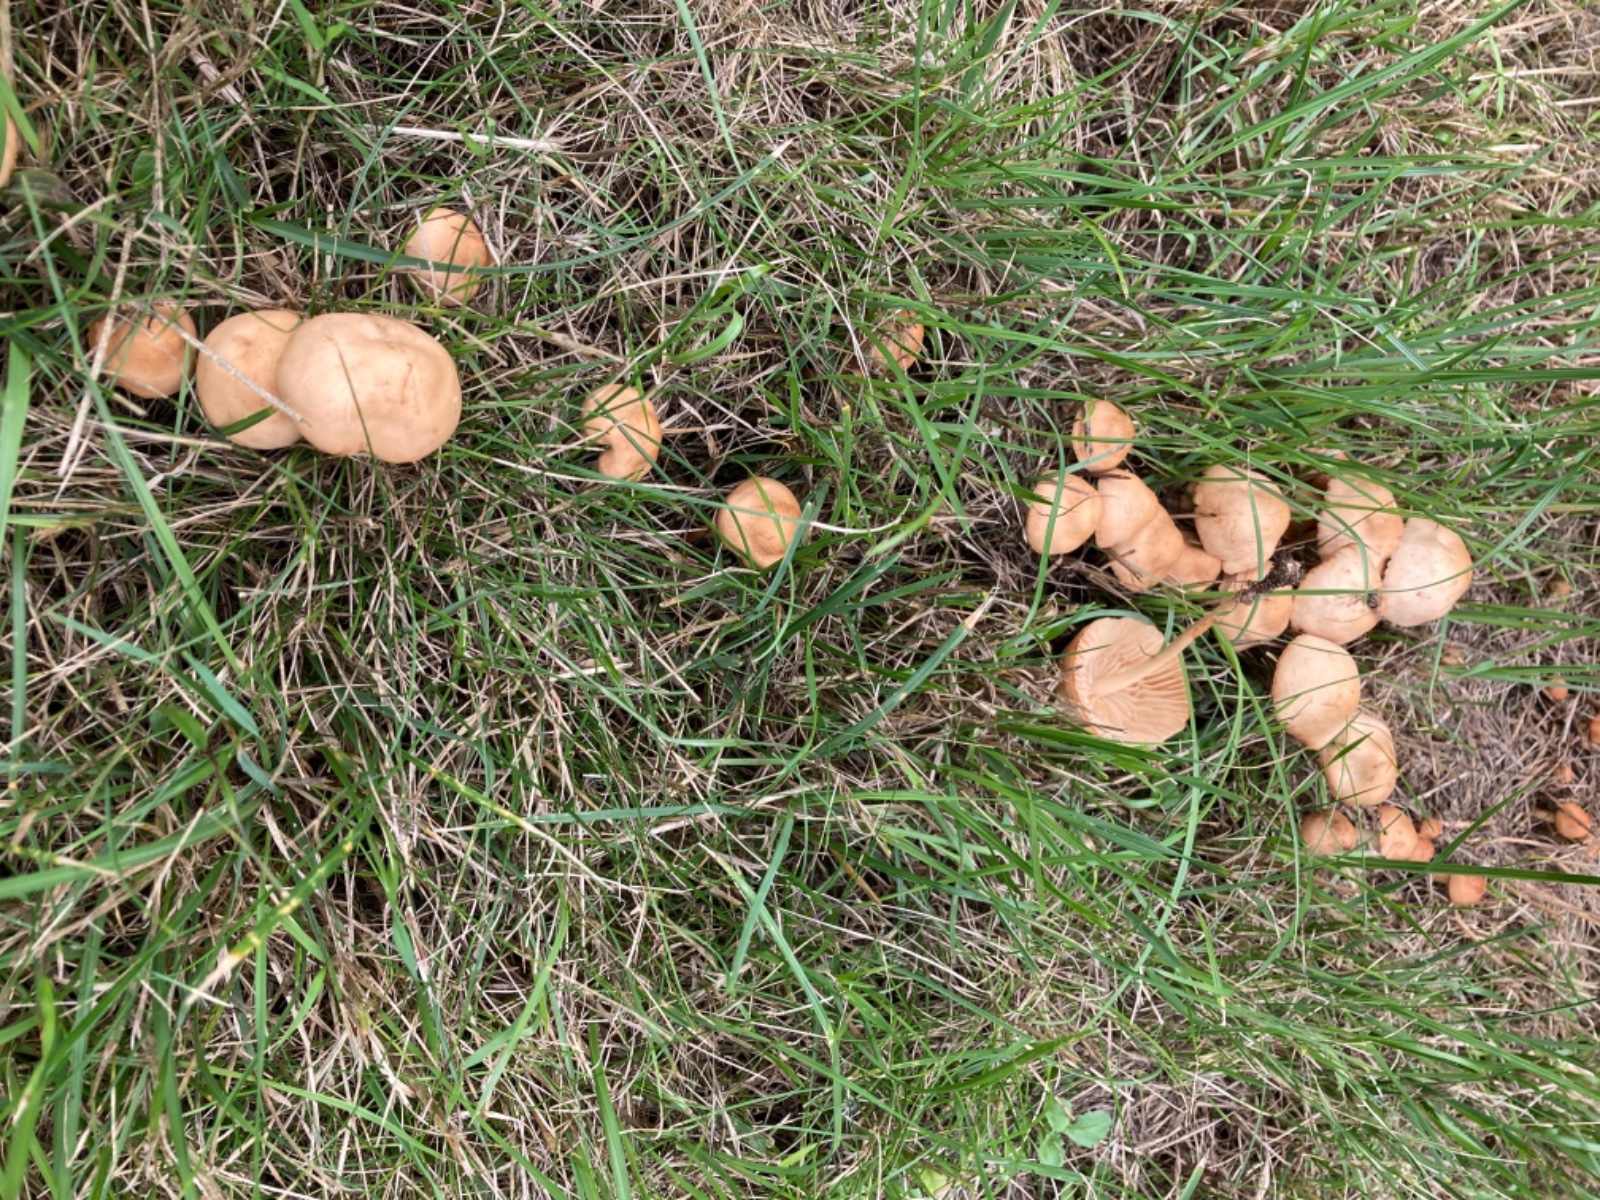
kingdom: Fungi
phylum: Basidiomycota
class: Agaricomycetes
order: Agaricales
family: Marasmiaceae
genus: Marasmius
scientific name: Marasmius oreades
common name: elledans-bruskhat
